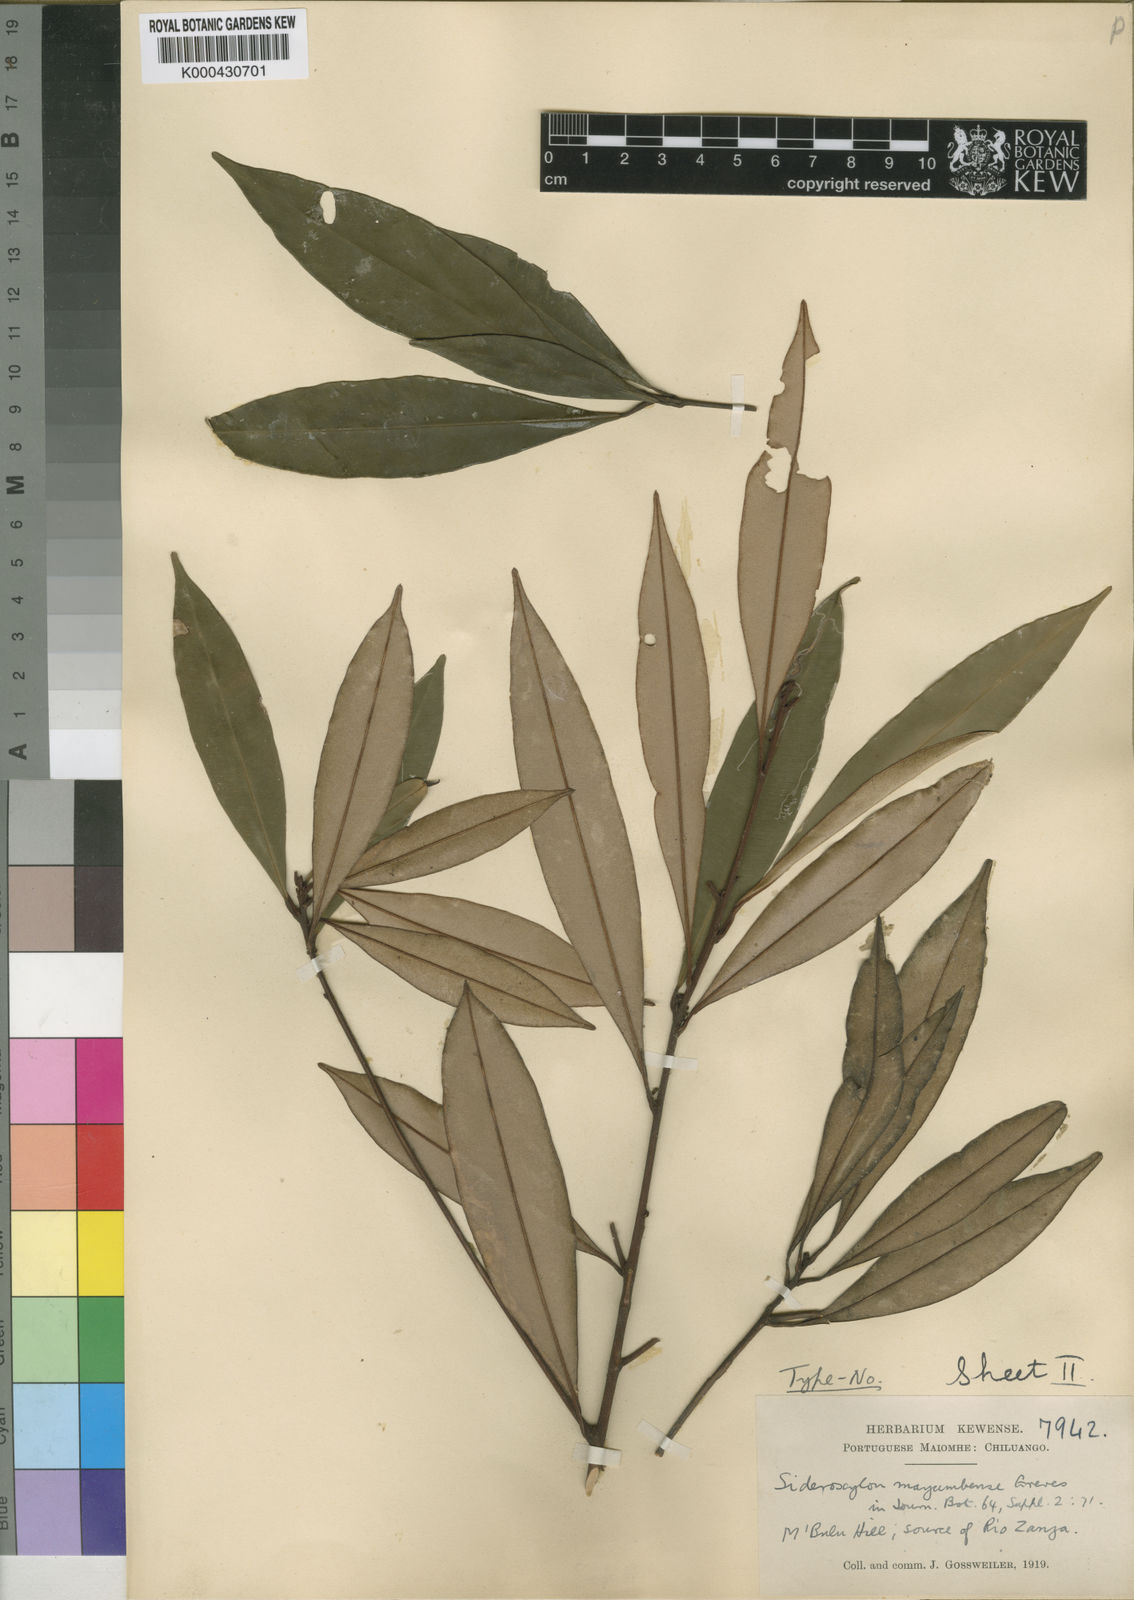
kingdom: Plantae
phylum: Tracheophyta
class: Magnoliopsida
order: Ericales
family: Sapotaceae
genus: Englerophytum
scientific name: Englerophytum
